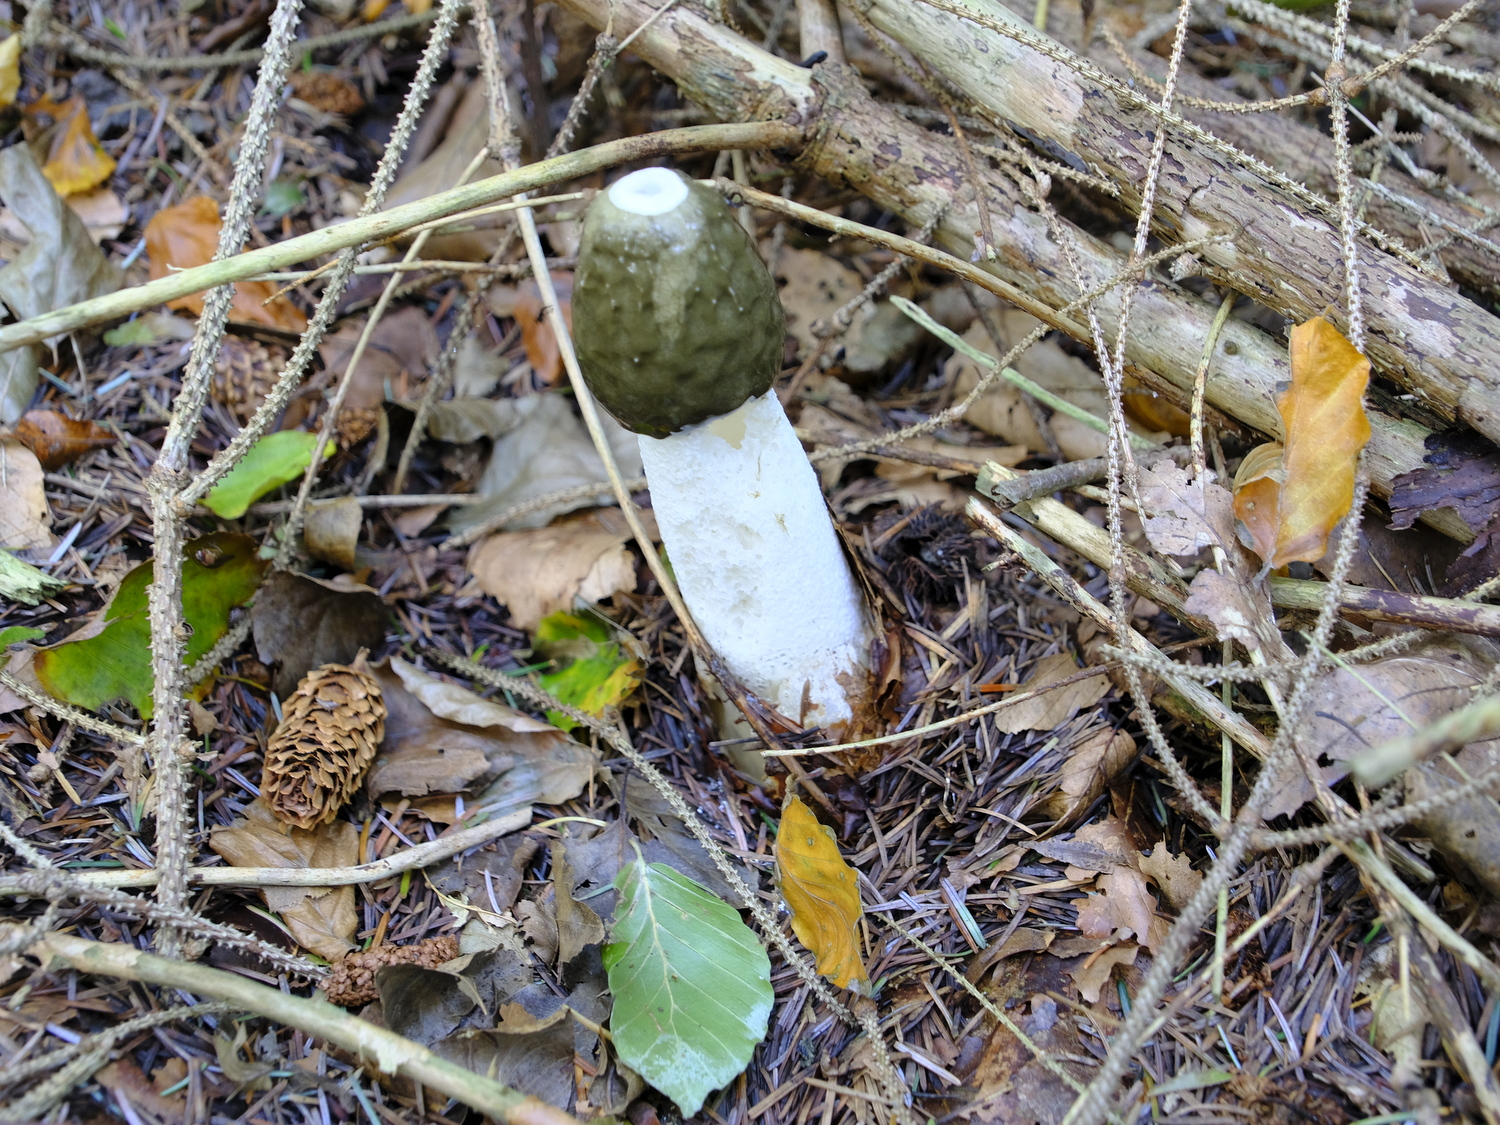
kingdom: Fungi
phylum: Basidiomycota
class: Agaricomycetes
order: Phallales
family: Phallaceae
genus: Phallus
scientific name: Phallus impudicus
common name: almindelig stinksvamp
